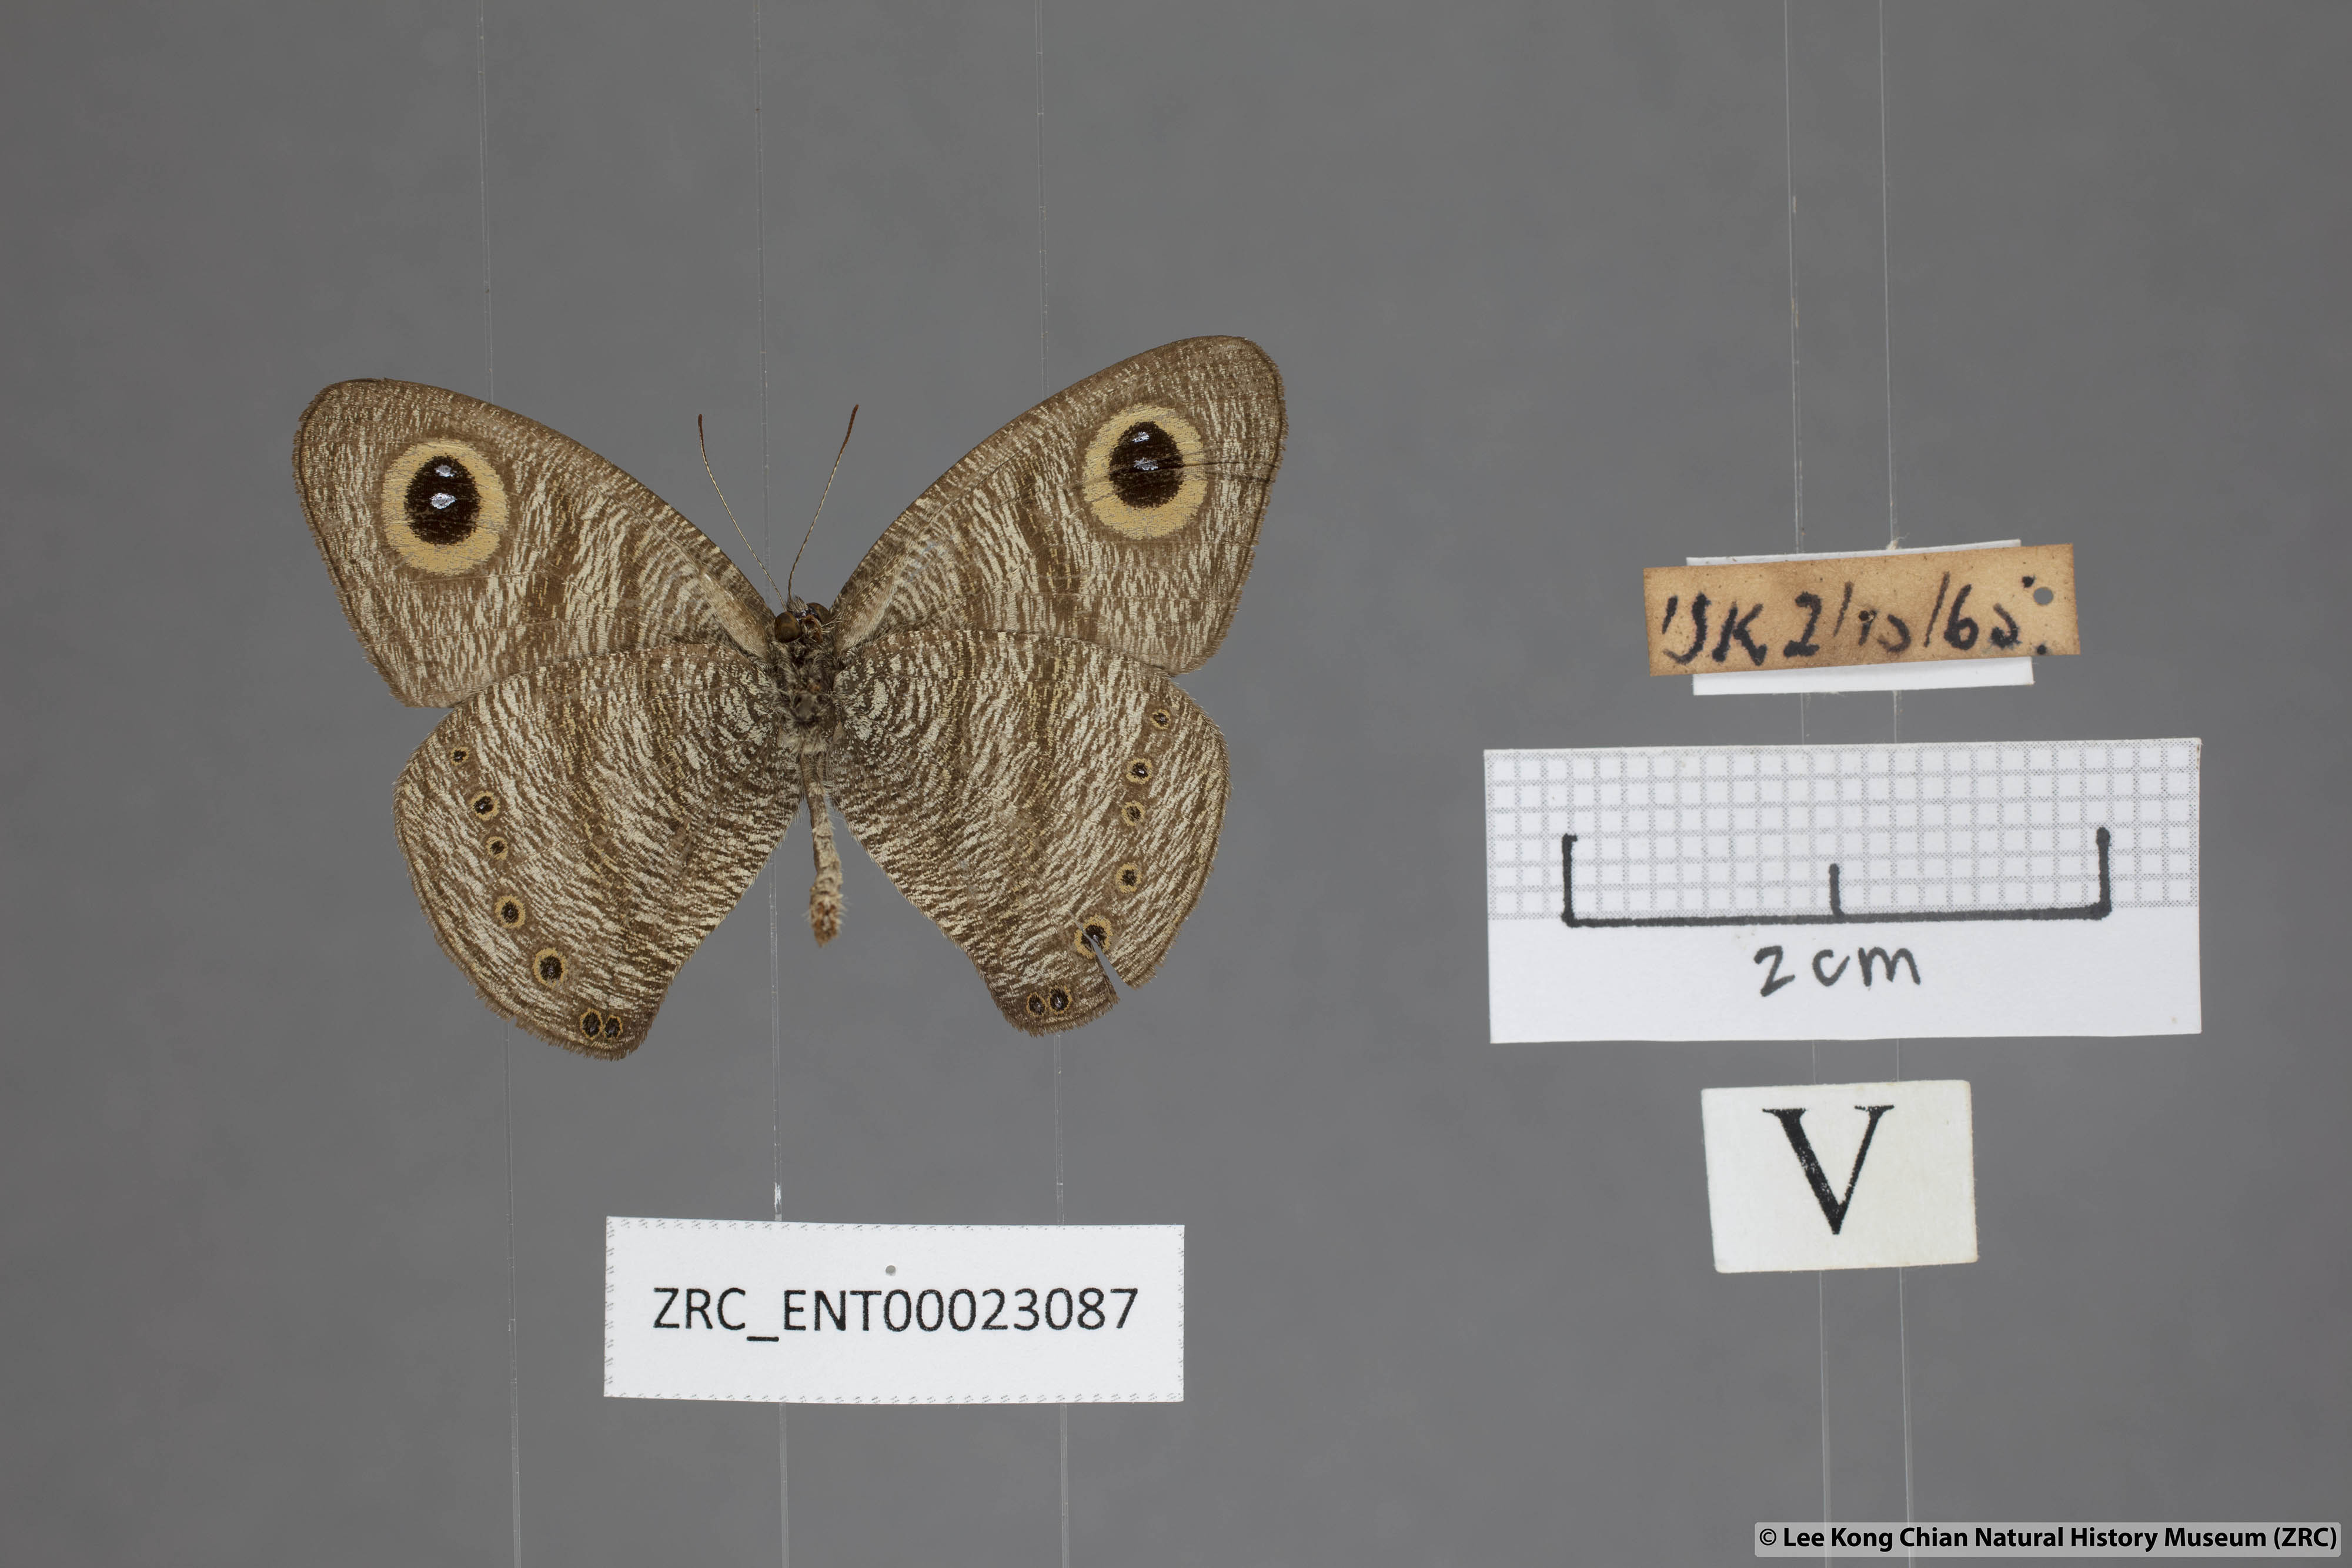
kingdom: Animalia
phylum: Arthropoda
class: Insecta
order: Lepidoptera
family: Nymphalidae
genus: Ypthima
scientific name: Ypthima fasciata
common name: Malayan six-ring
